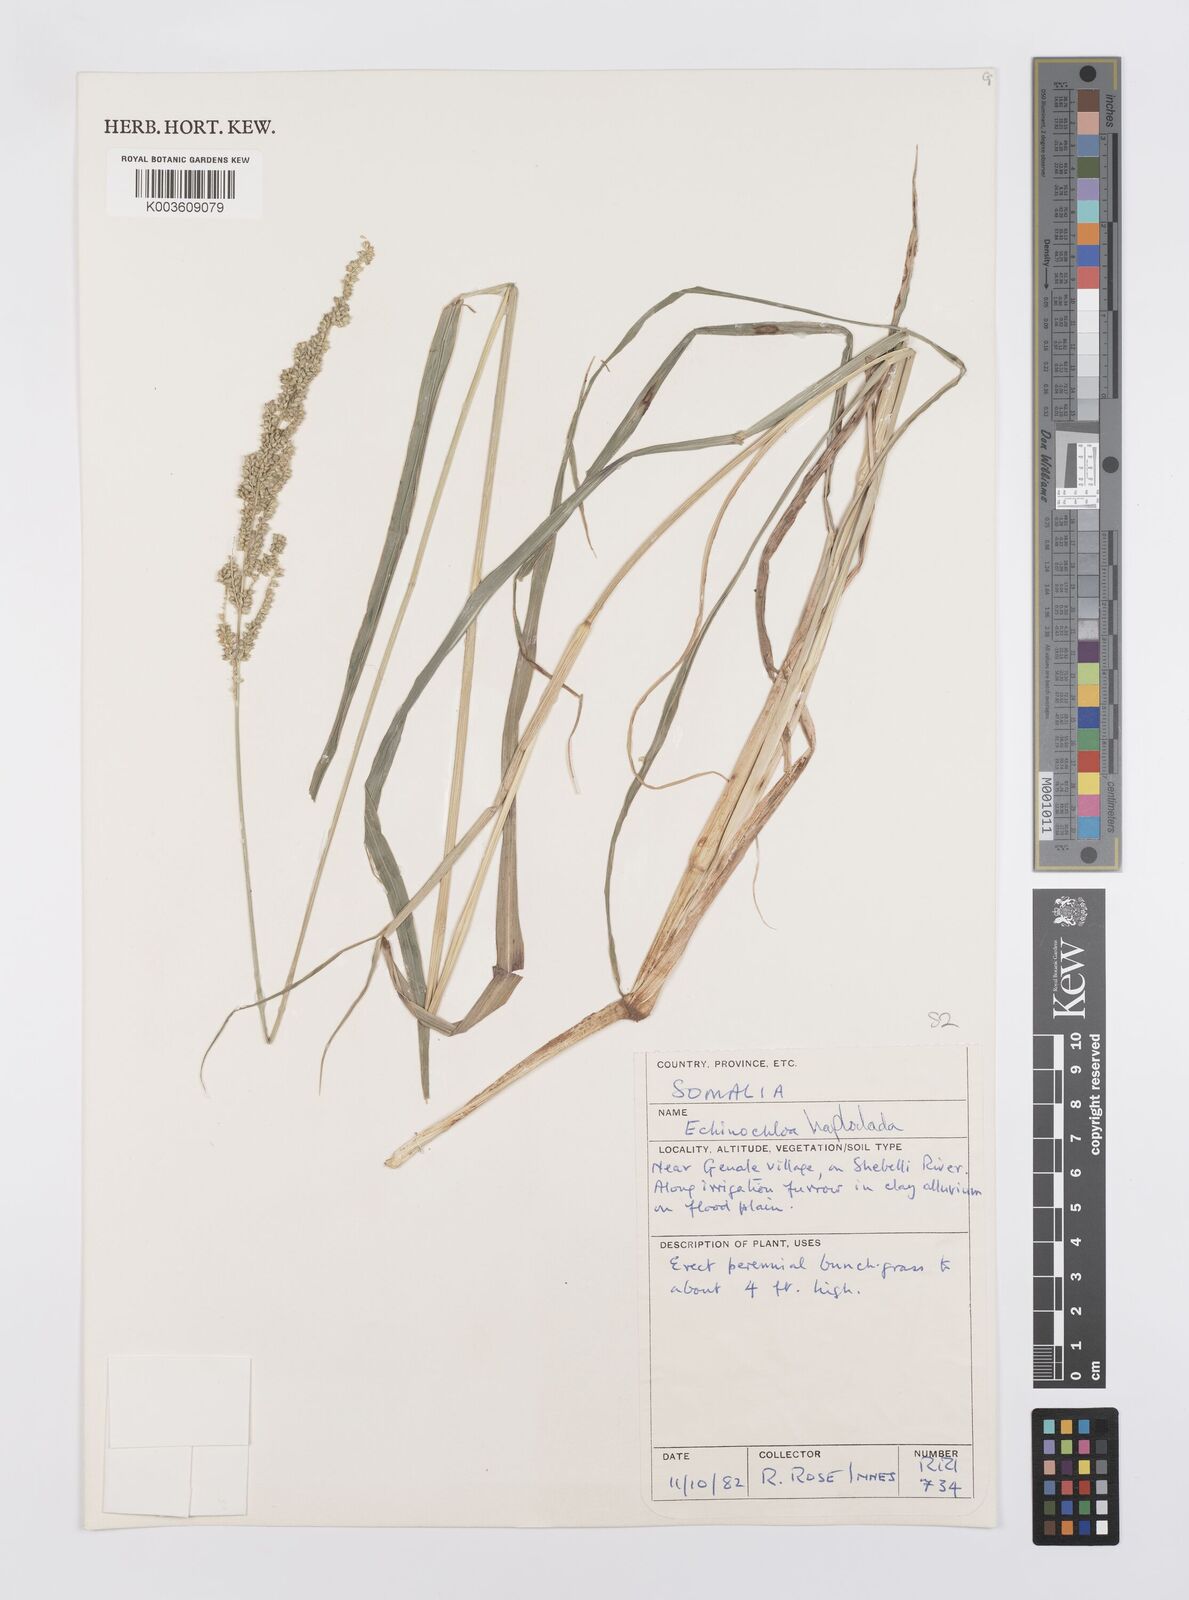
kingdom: Plantae
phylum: Tracheophyta
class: Liliopsida
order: Poales
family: Poaceae
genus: Echinochloa
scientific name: Echinochloa haploclada
